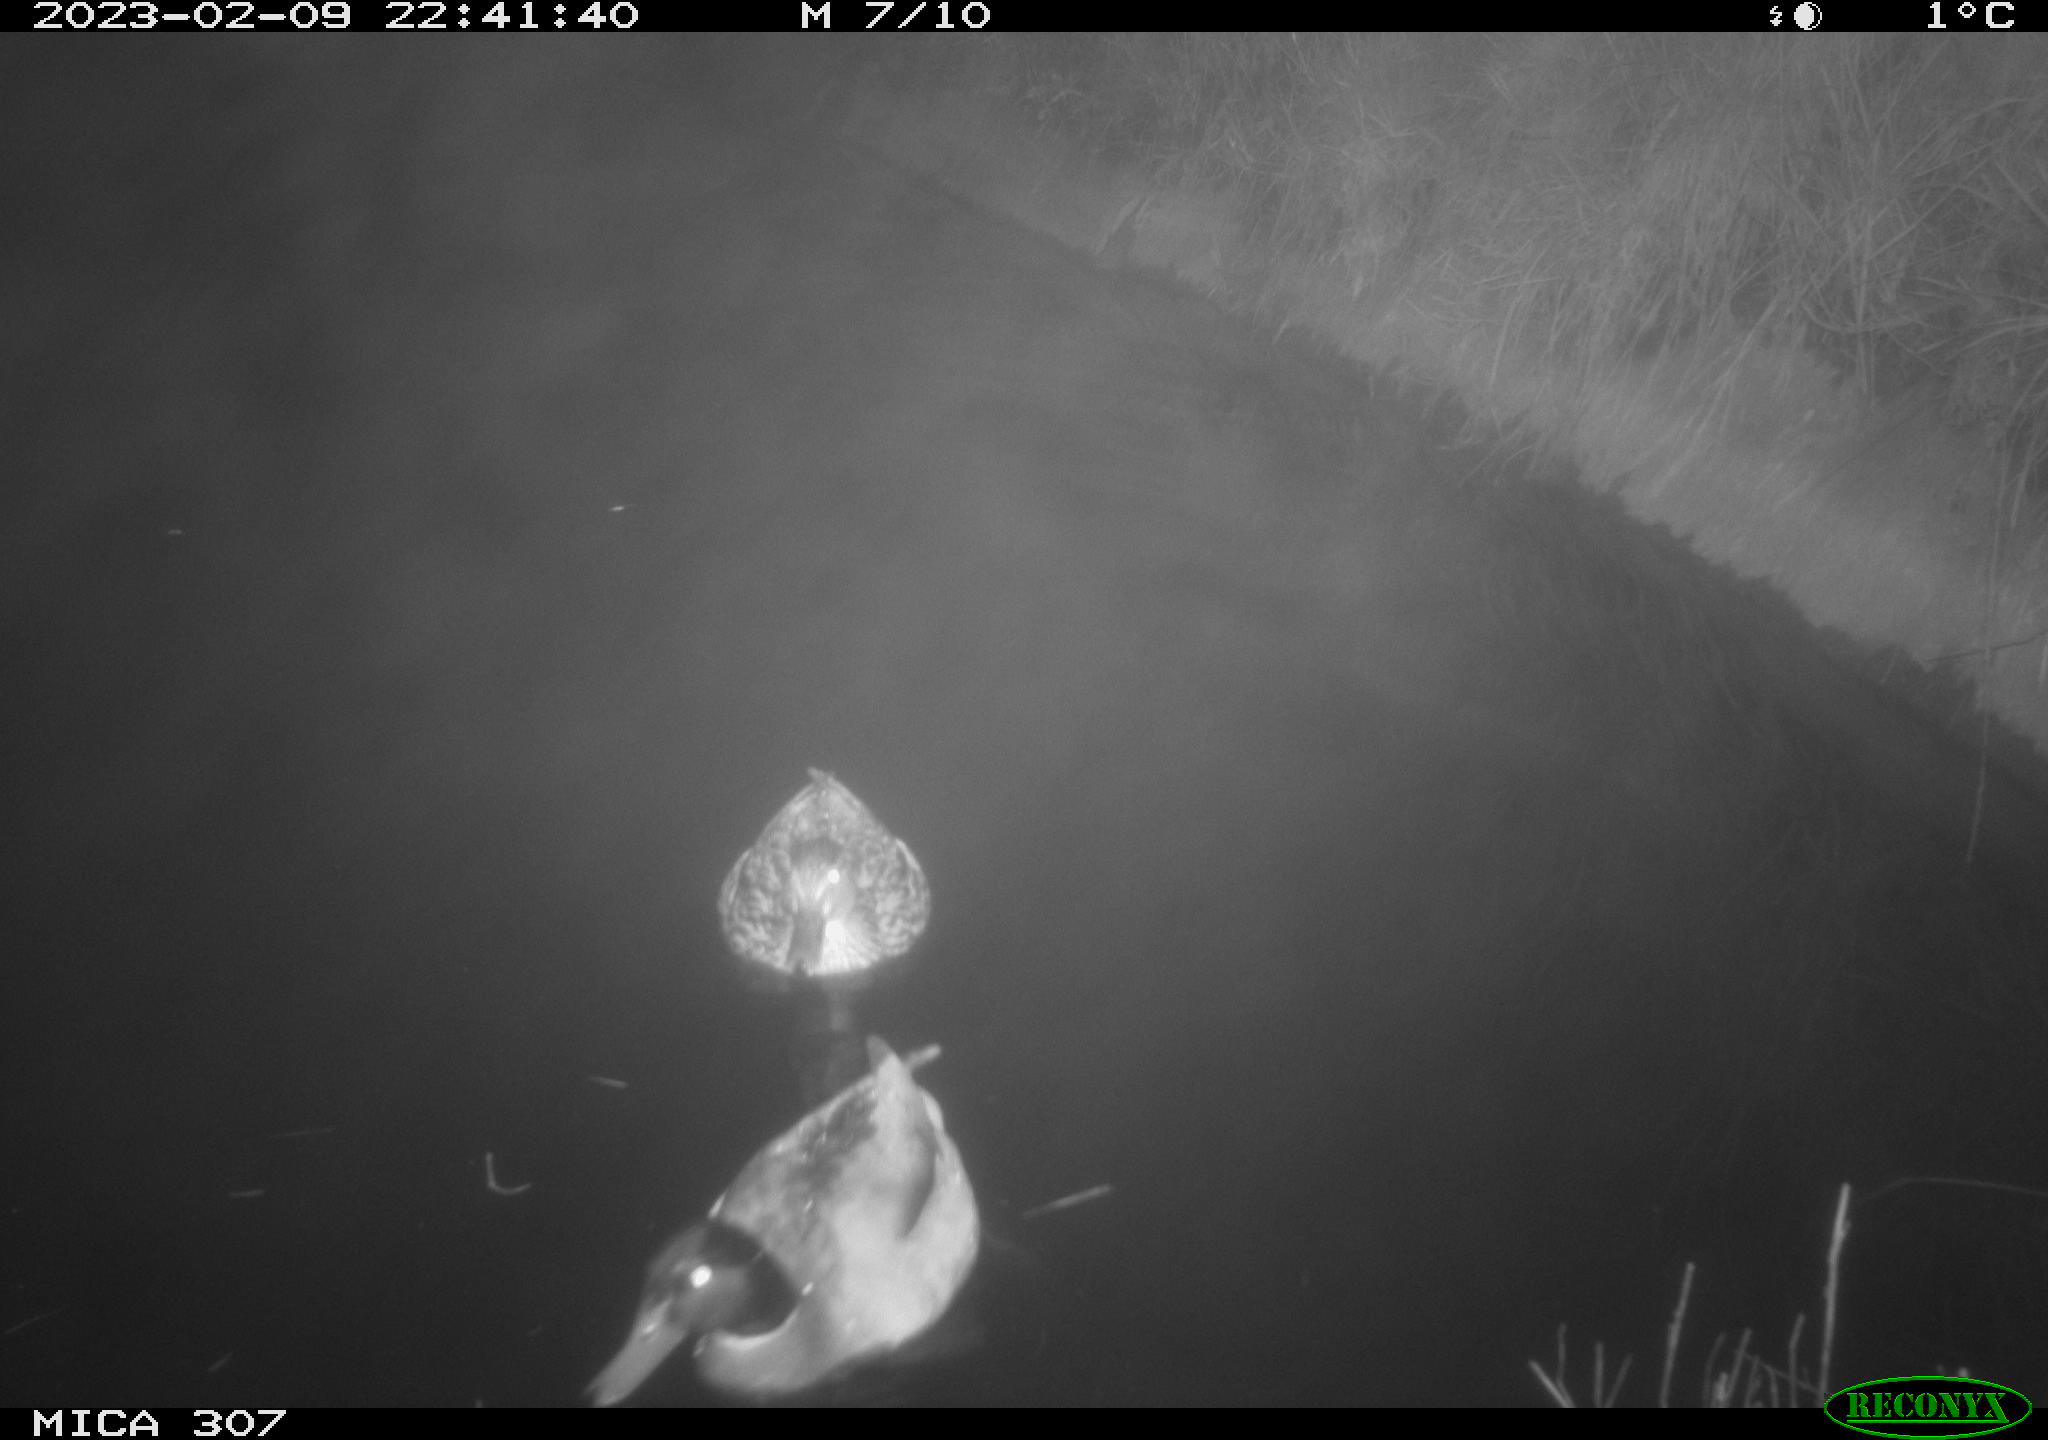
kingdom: Animalia
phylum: Chordata
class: Aves
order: Anseriformes
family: Anatidae
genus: Anas
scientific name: Anas
